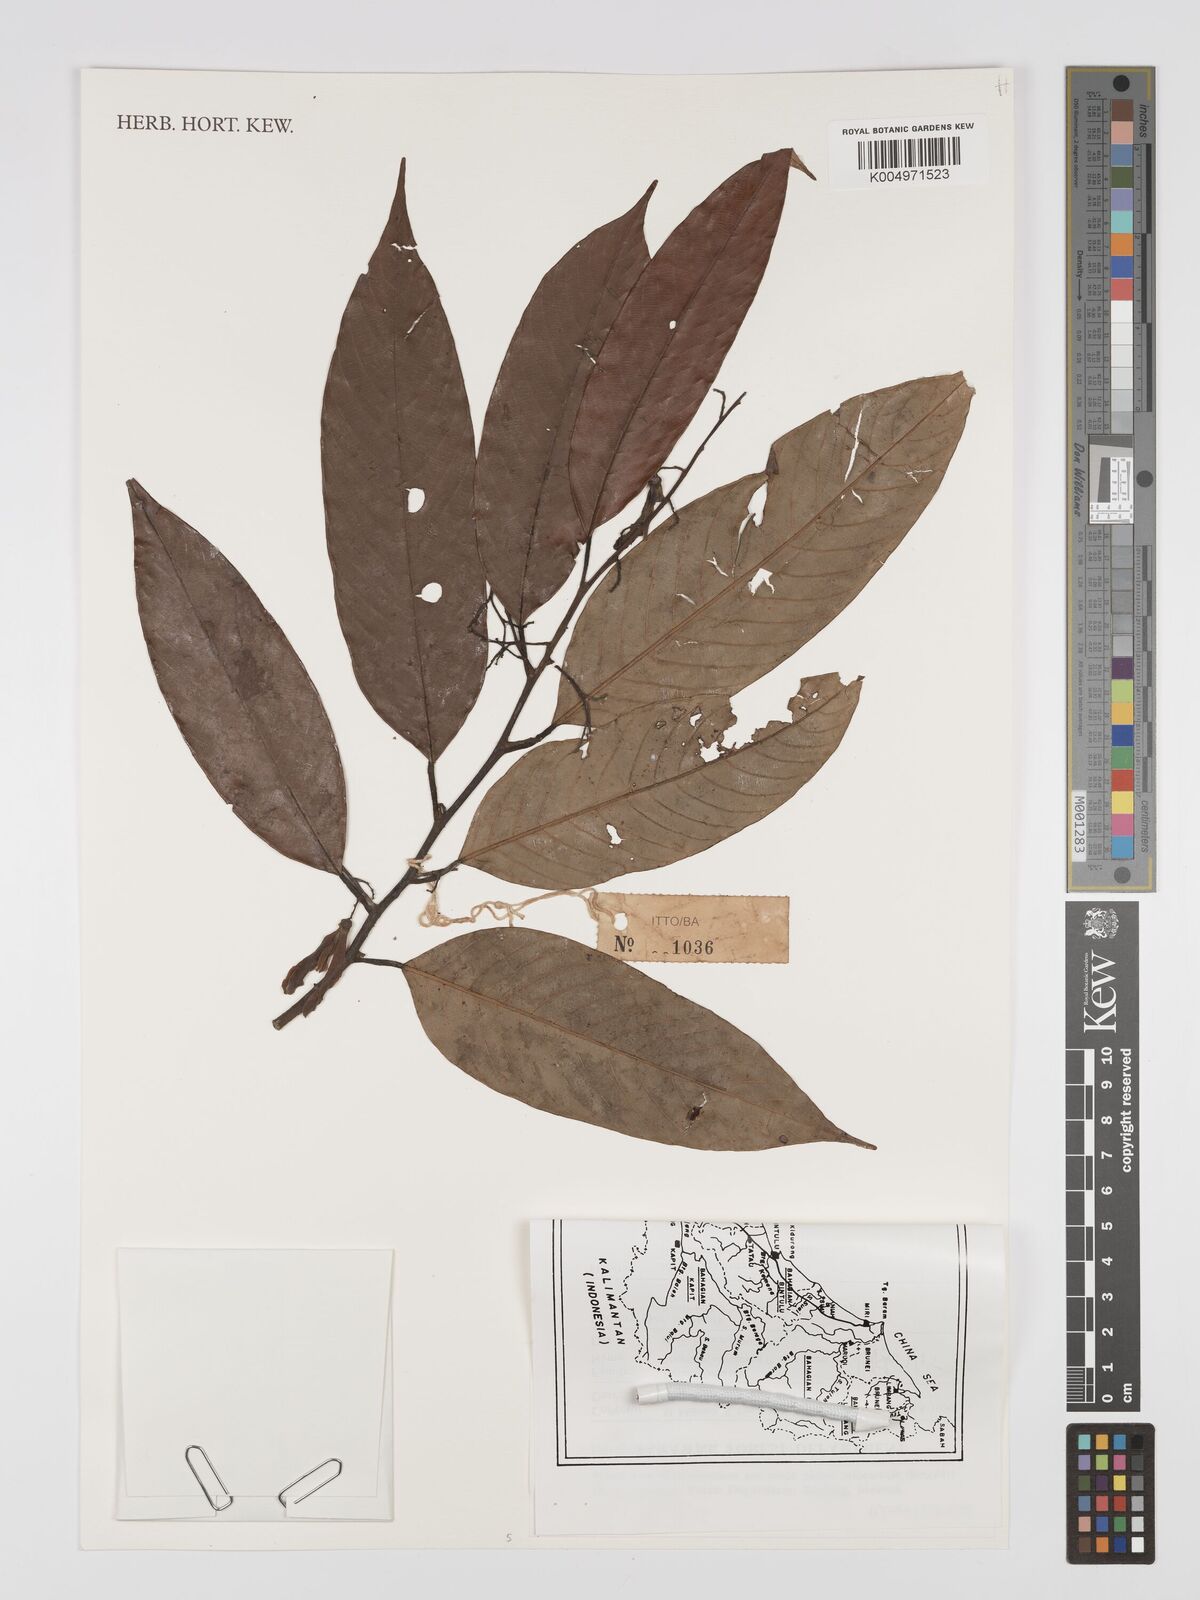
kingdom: Plantae
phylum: Tracheophyta
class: Magnoliopsida
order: Malvales
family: Dipterocarpaceae
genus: Shorea
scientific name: Shorea brunnescens
